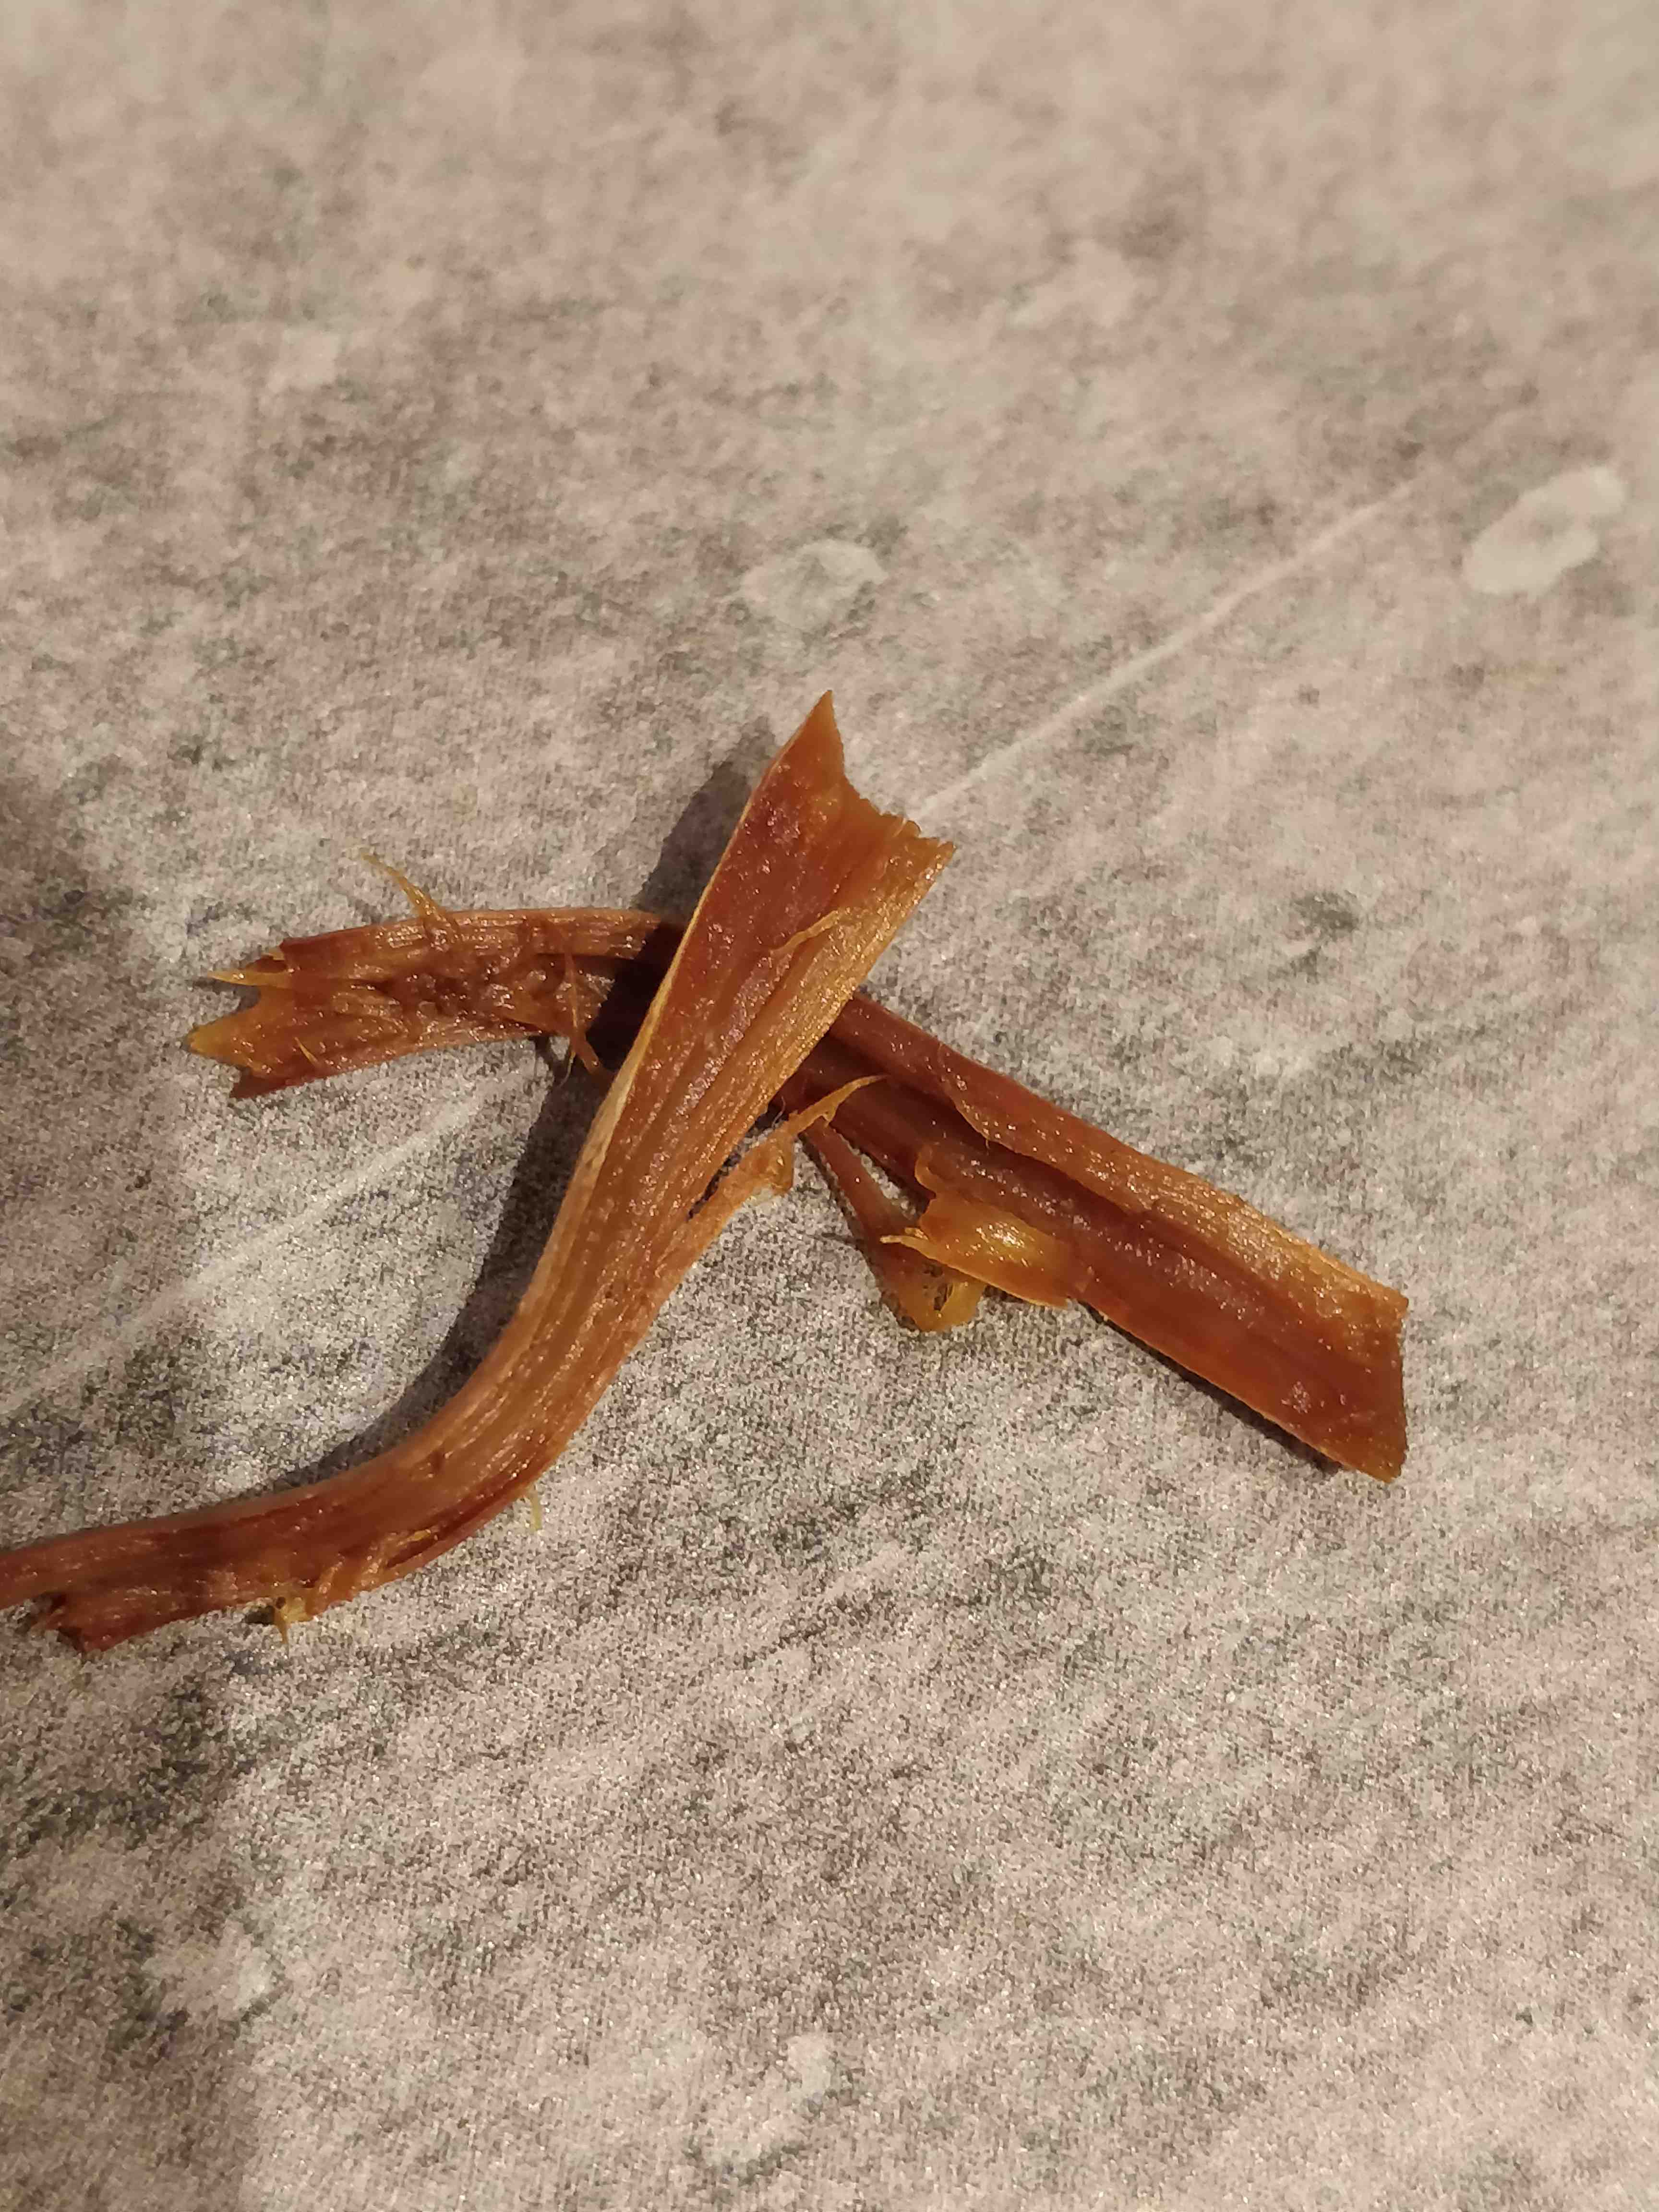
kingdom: Fungi
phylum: Basidiomycota
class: Agaricomycetes
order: Agaricales
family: Strophariaceae
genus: Hypholoma
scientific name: Hypholoma marginatum
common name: enlig svovlhat
